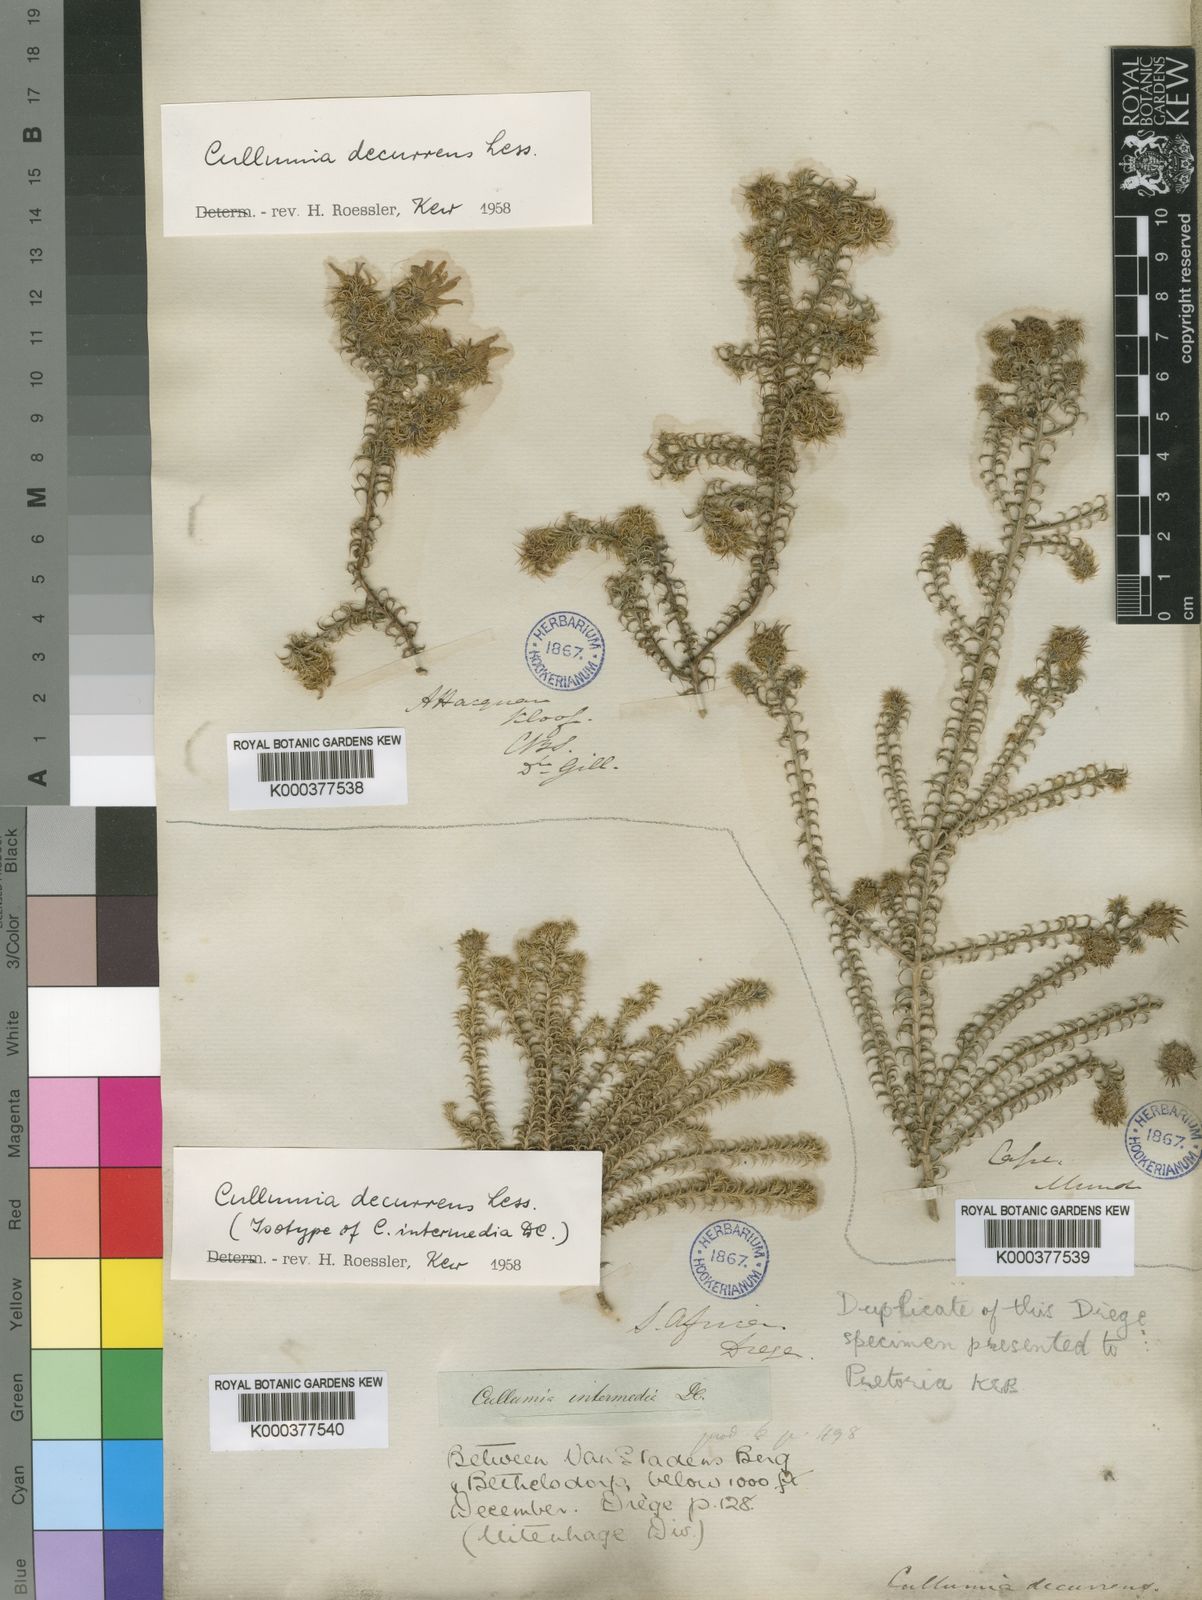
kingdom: Plantae
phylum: Tracheophyta
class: Magnoliopsida
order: Asterales
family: Asteraceae
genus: Cullumia
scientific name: Cullumia decurrens
